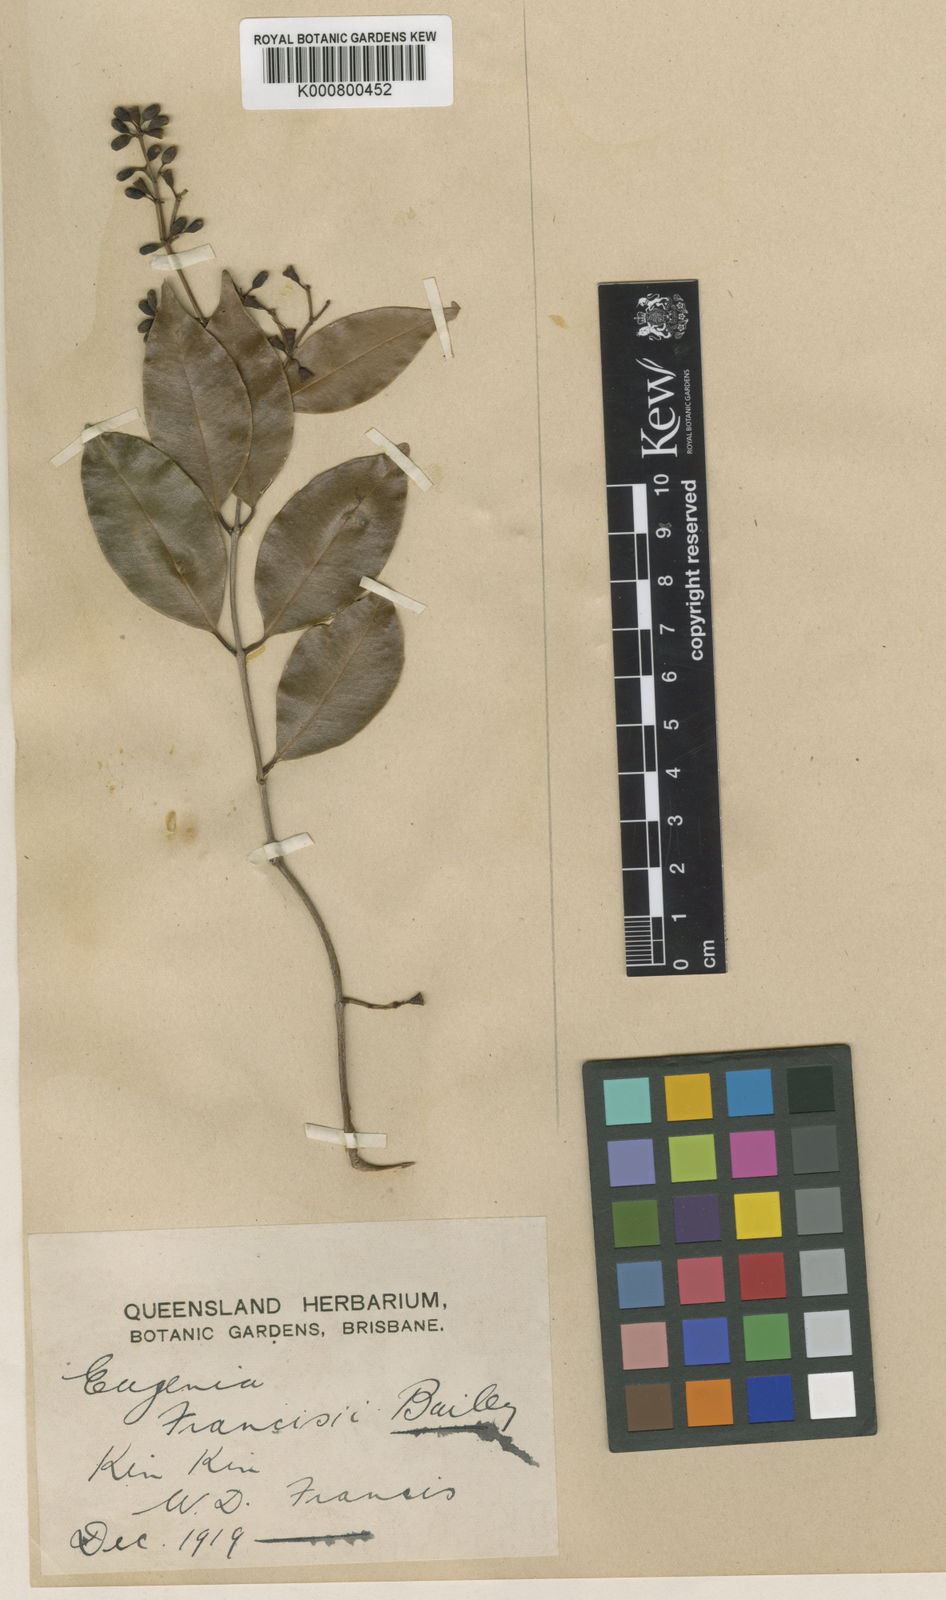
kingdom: Plantae
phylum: Tracheophyta
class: Magnoliopsida
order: Myrtales
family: Myrtaceae
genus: Syzygium
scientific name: Syzygium francisii
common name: Giant water-gum
